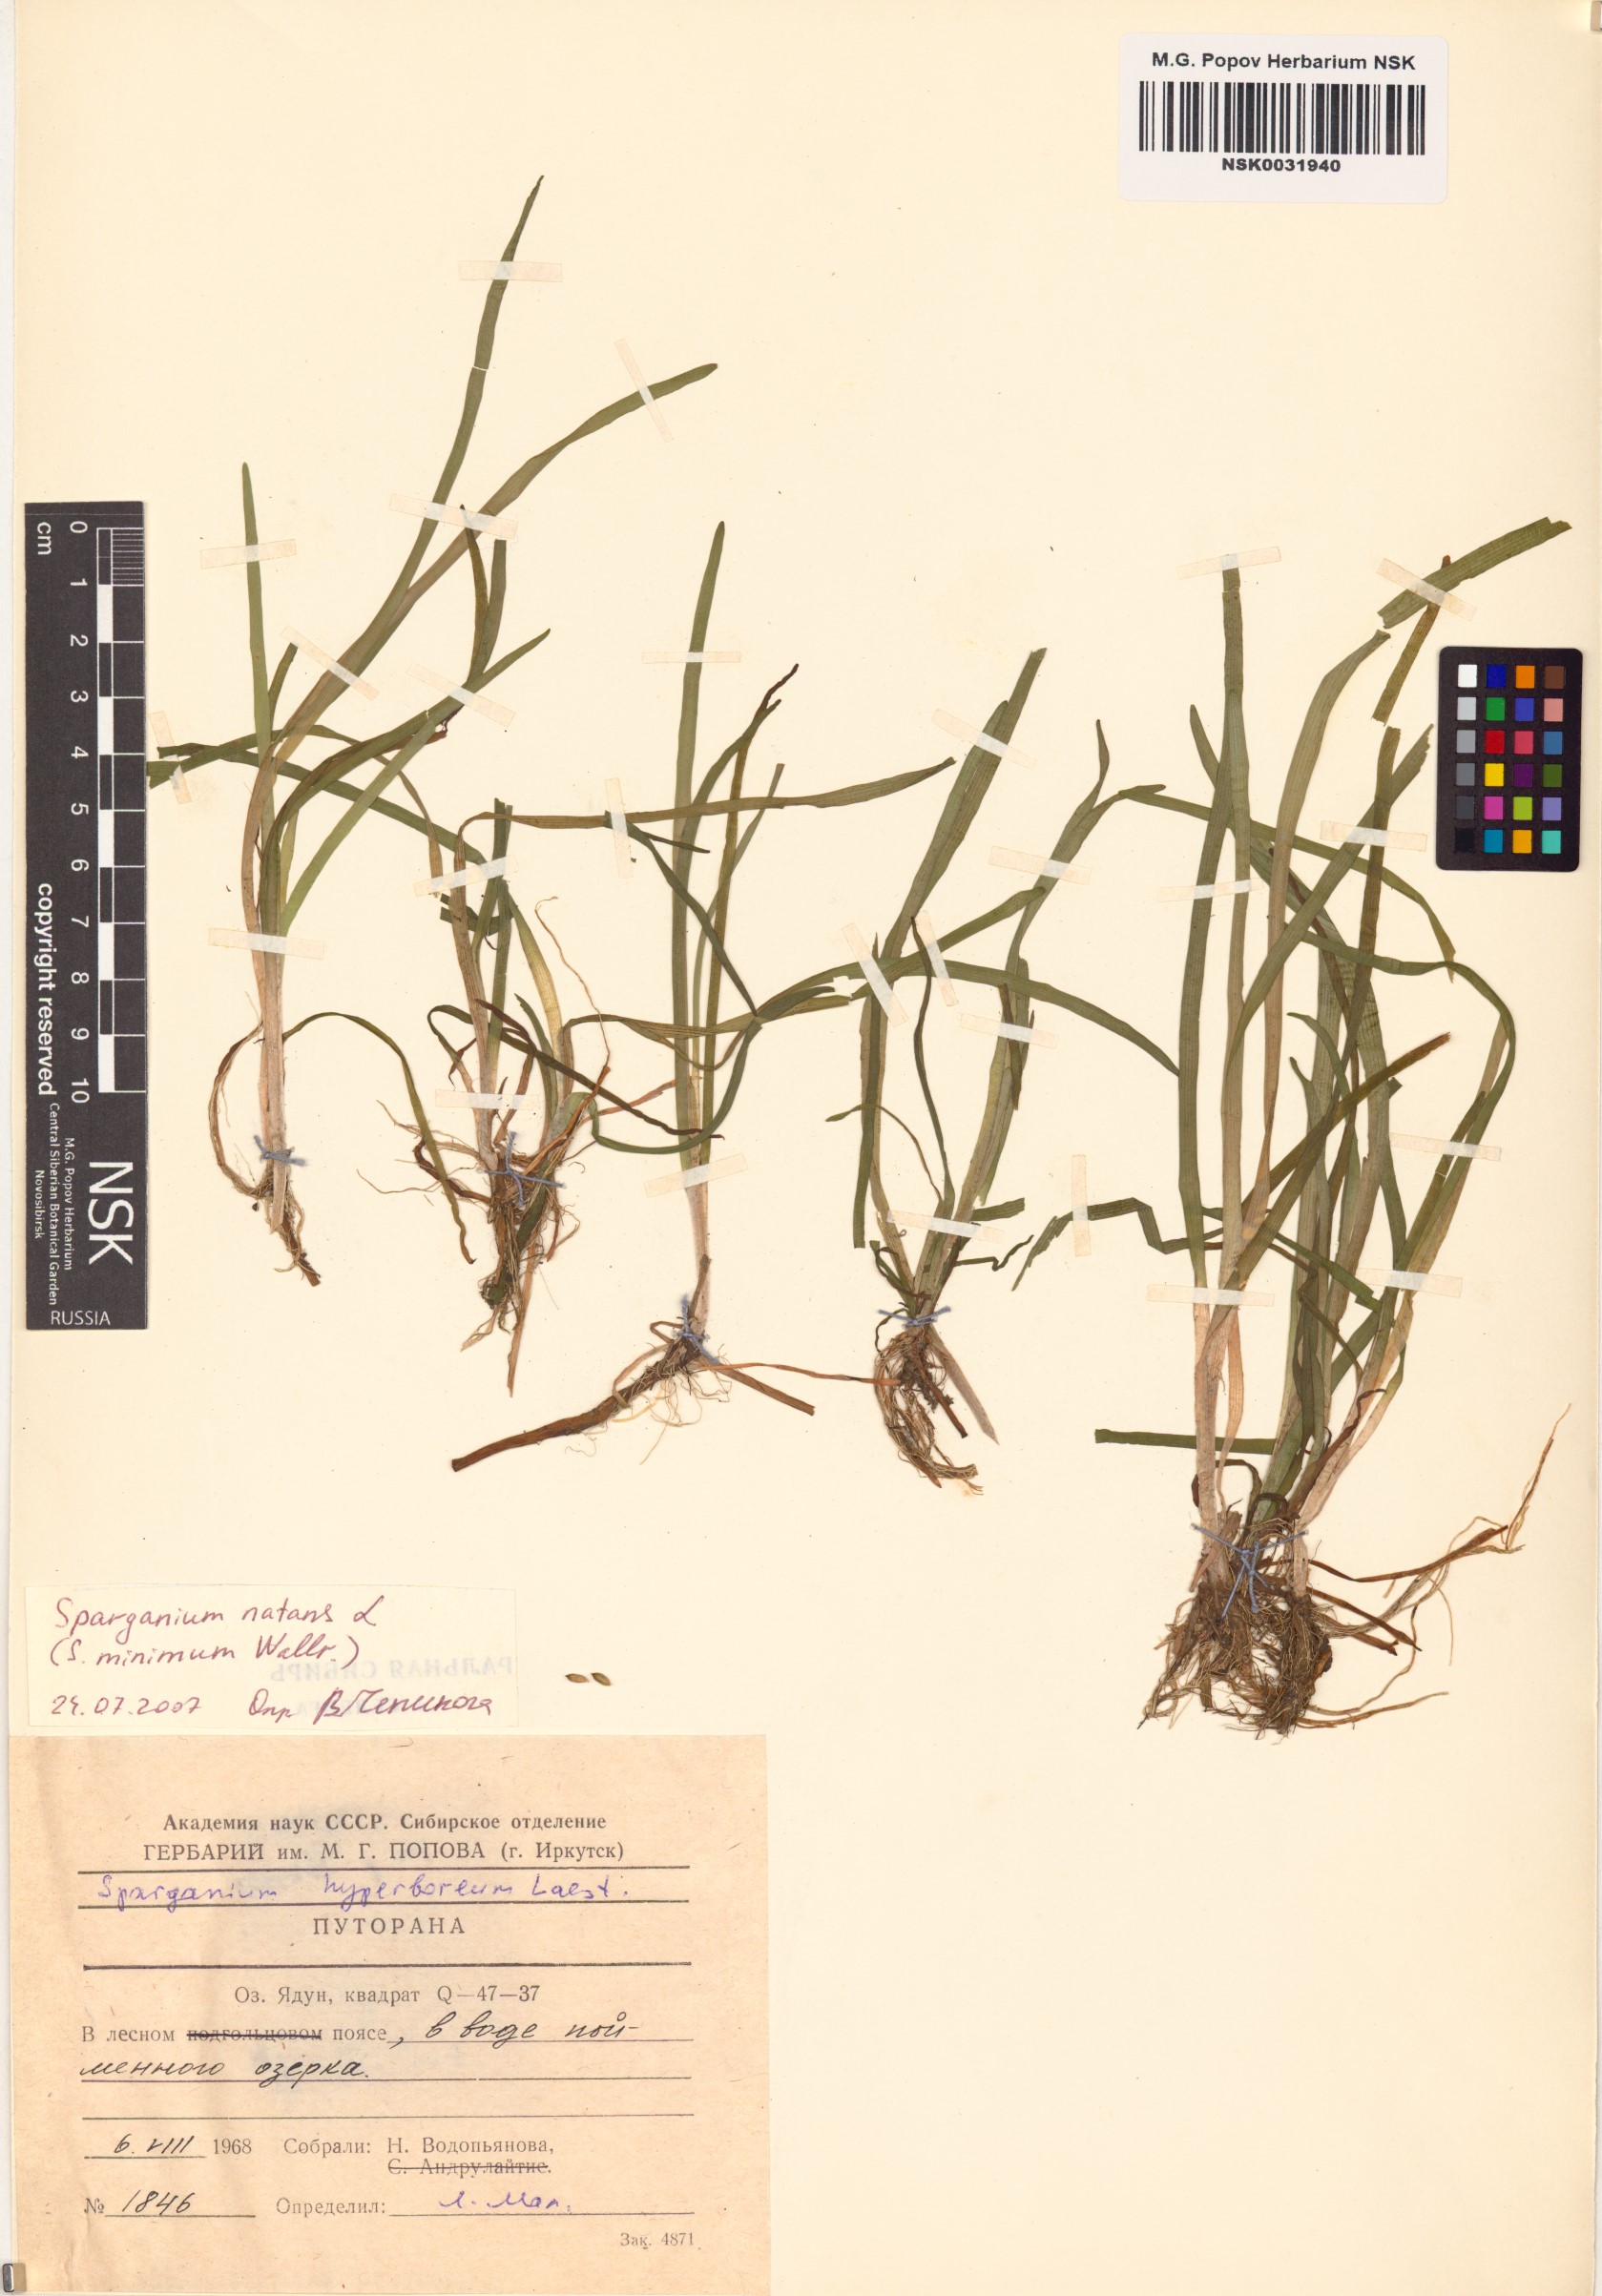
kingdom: Plantae
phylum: Tracheophyta
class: Liliopsida
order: Poales
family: Typhaceae
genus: Sparganium
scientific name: Sparganium natans
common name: Least bur-reed
